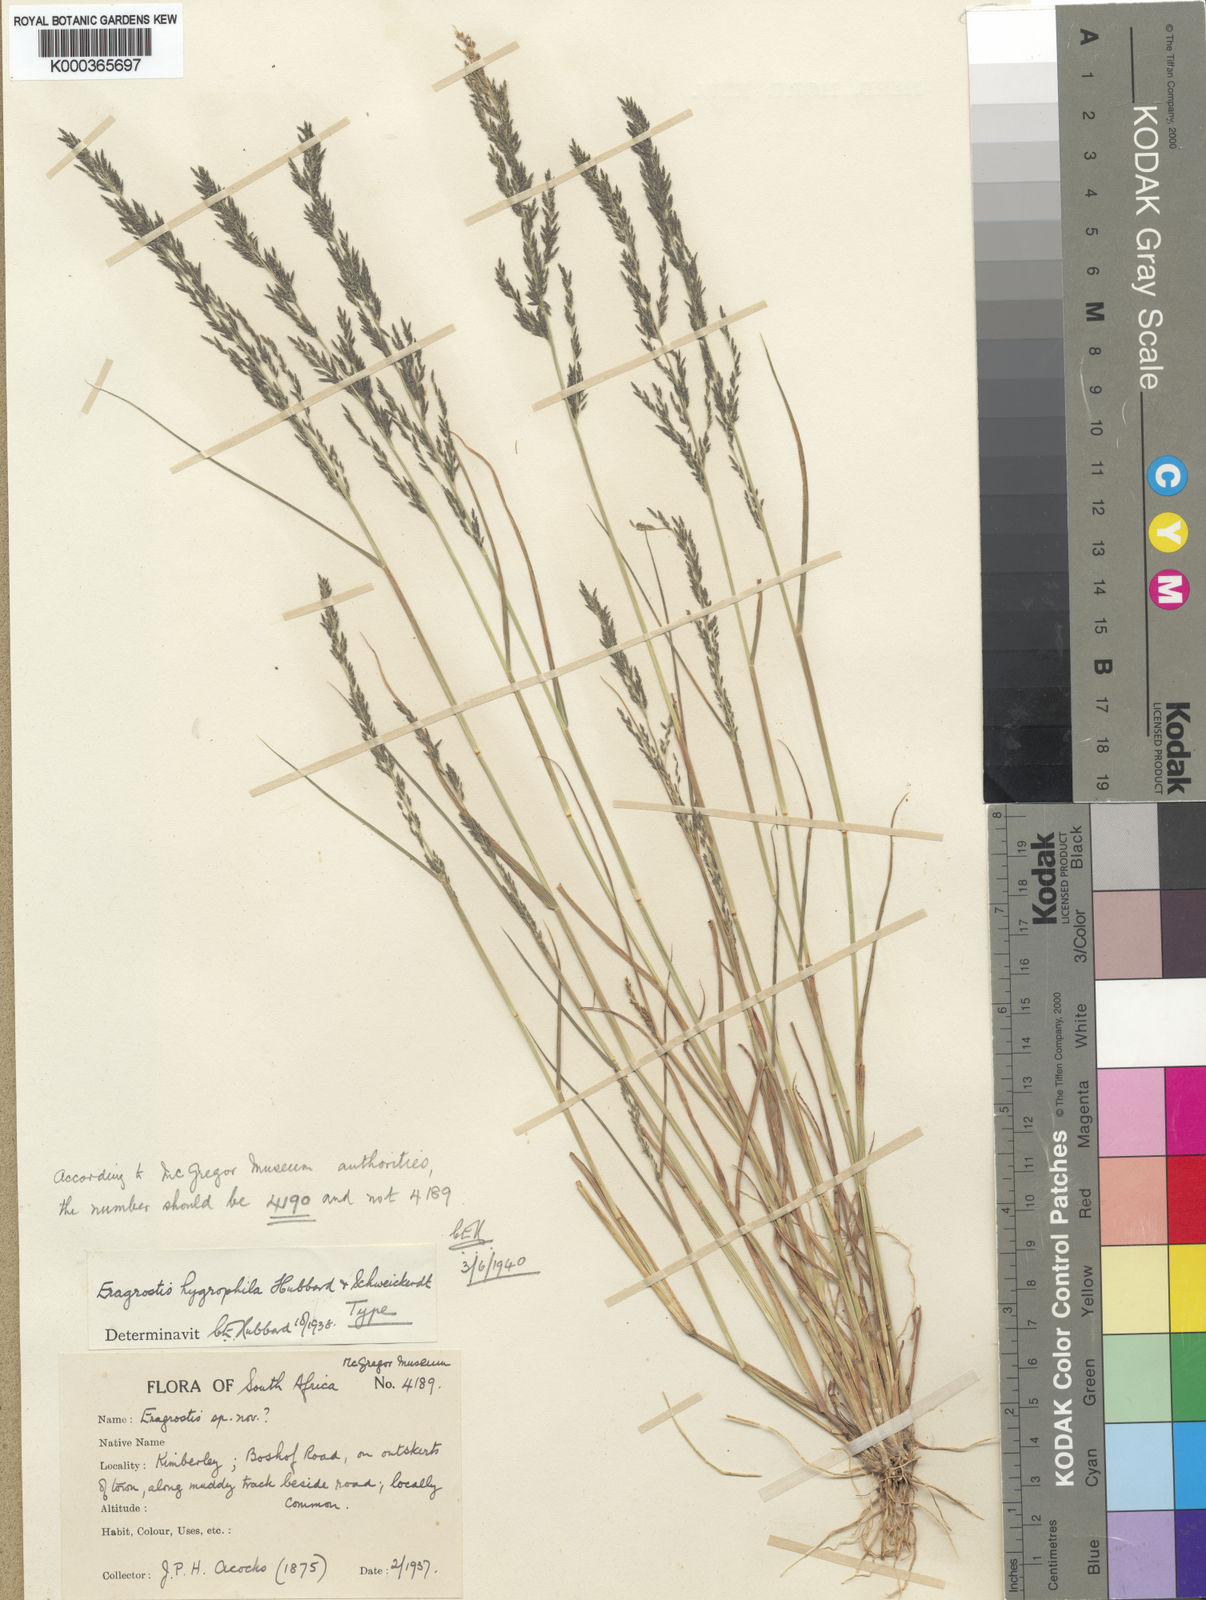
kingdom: Plantae
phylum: Tracheophyta
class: Liliopsida
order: Poales
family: Poaceae
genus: Eragrostis
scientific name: Eragrostis homomalla
